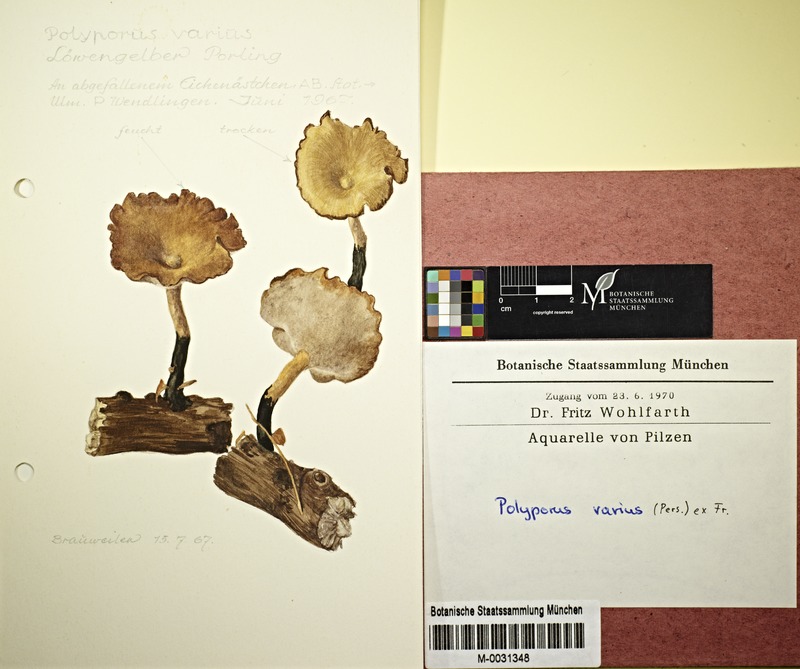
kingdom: Fungi
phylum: Basidiomycota
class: Agaricomycetes
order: Polyporales
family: Polyporaceae
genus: Polyporus
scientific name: Polyporus varius
